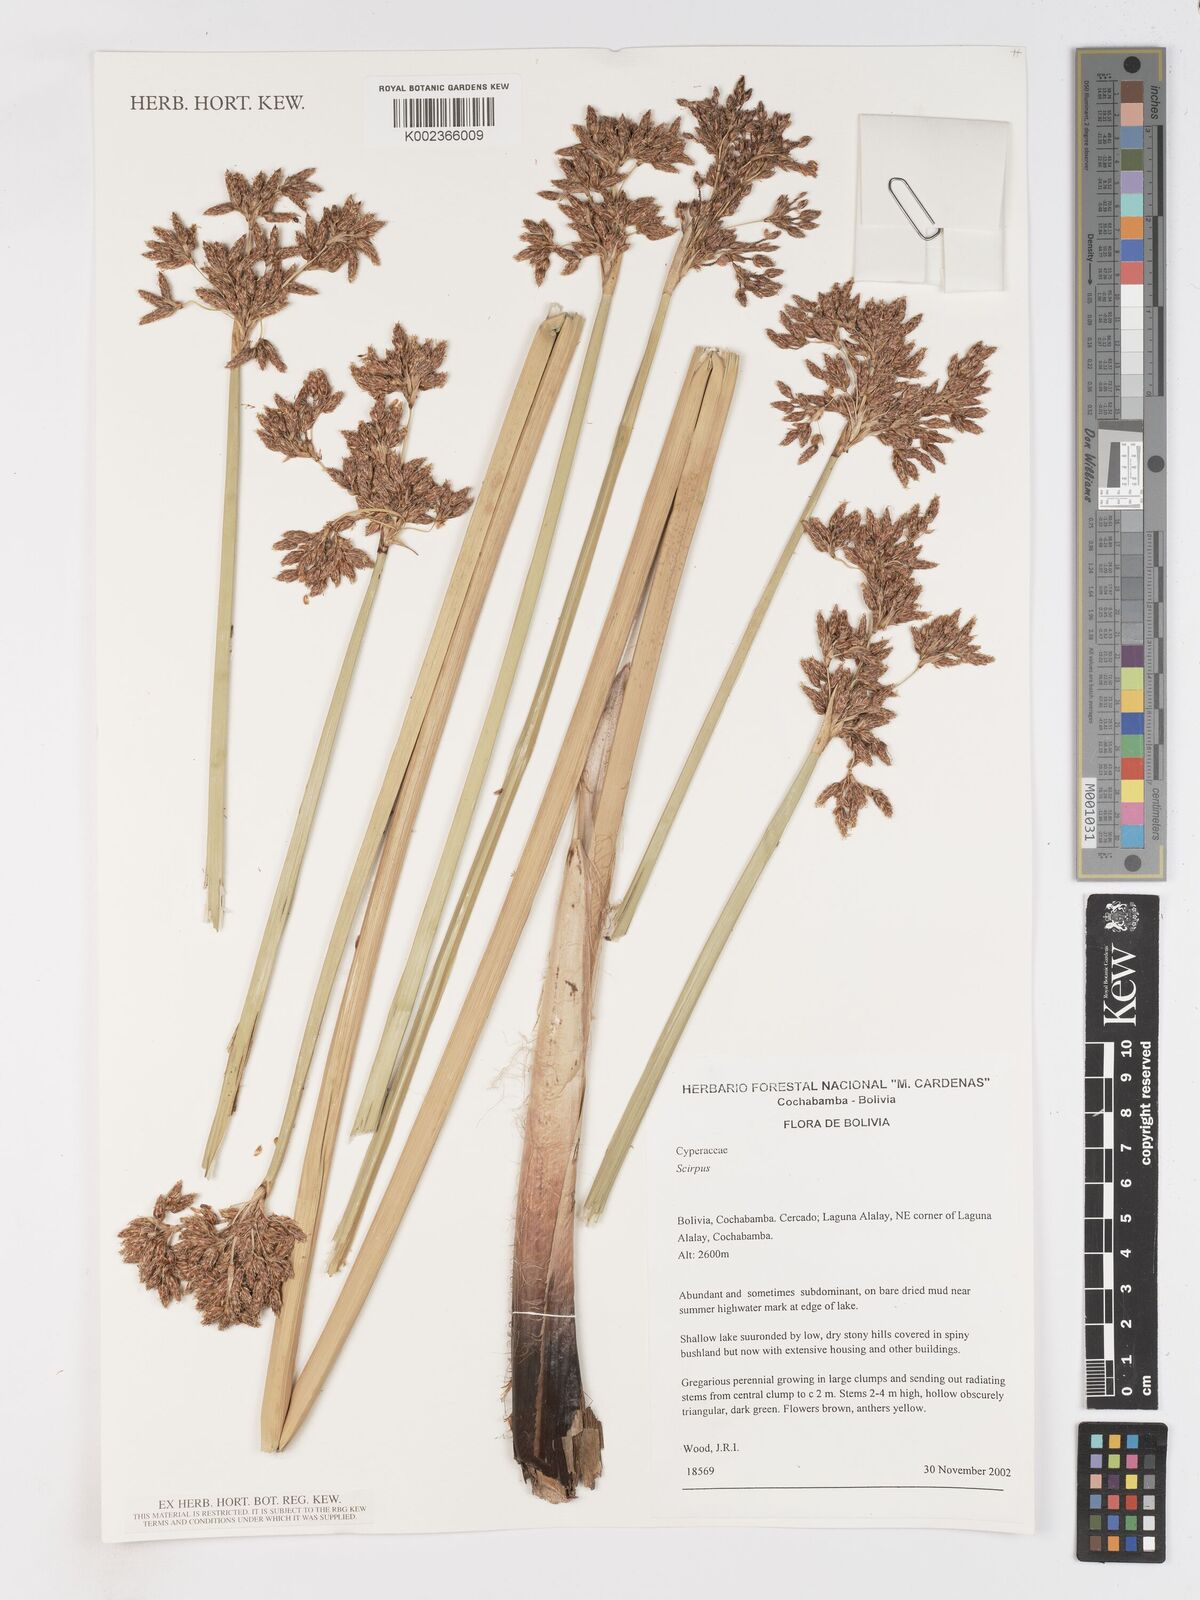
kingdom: Plantae
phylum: Tracheophyta
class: Liliopsida
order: Poales
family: Cyperaceae
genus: Schoenoplectus
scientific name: Schoenoplectus californicus
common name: California bulrush
